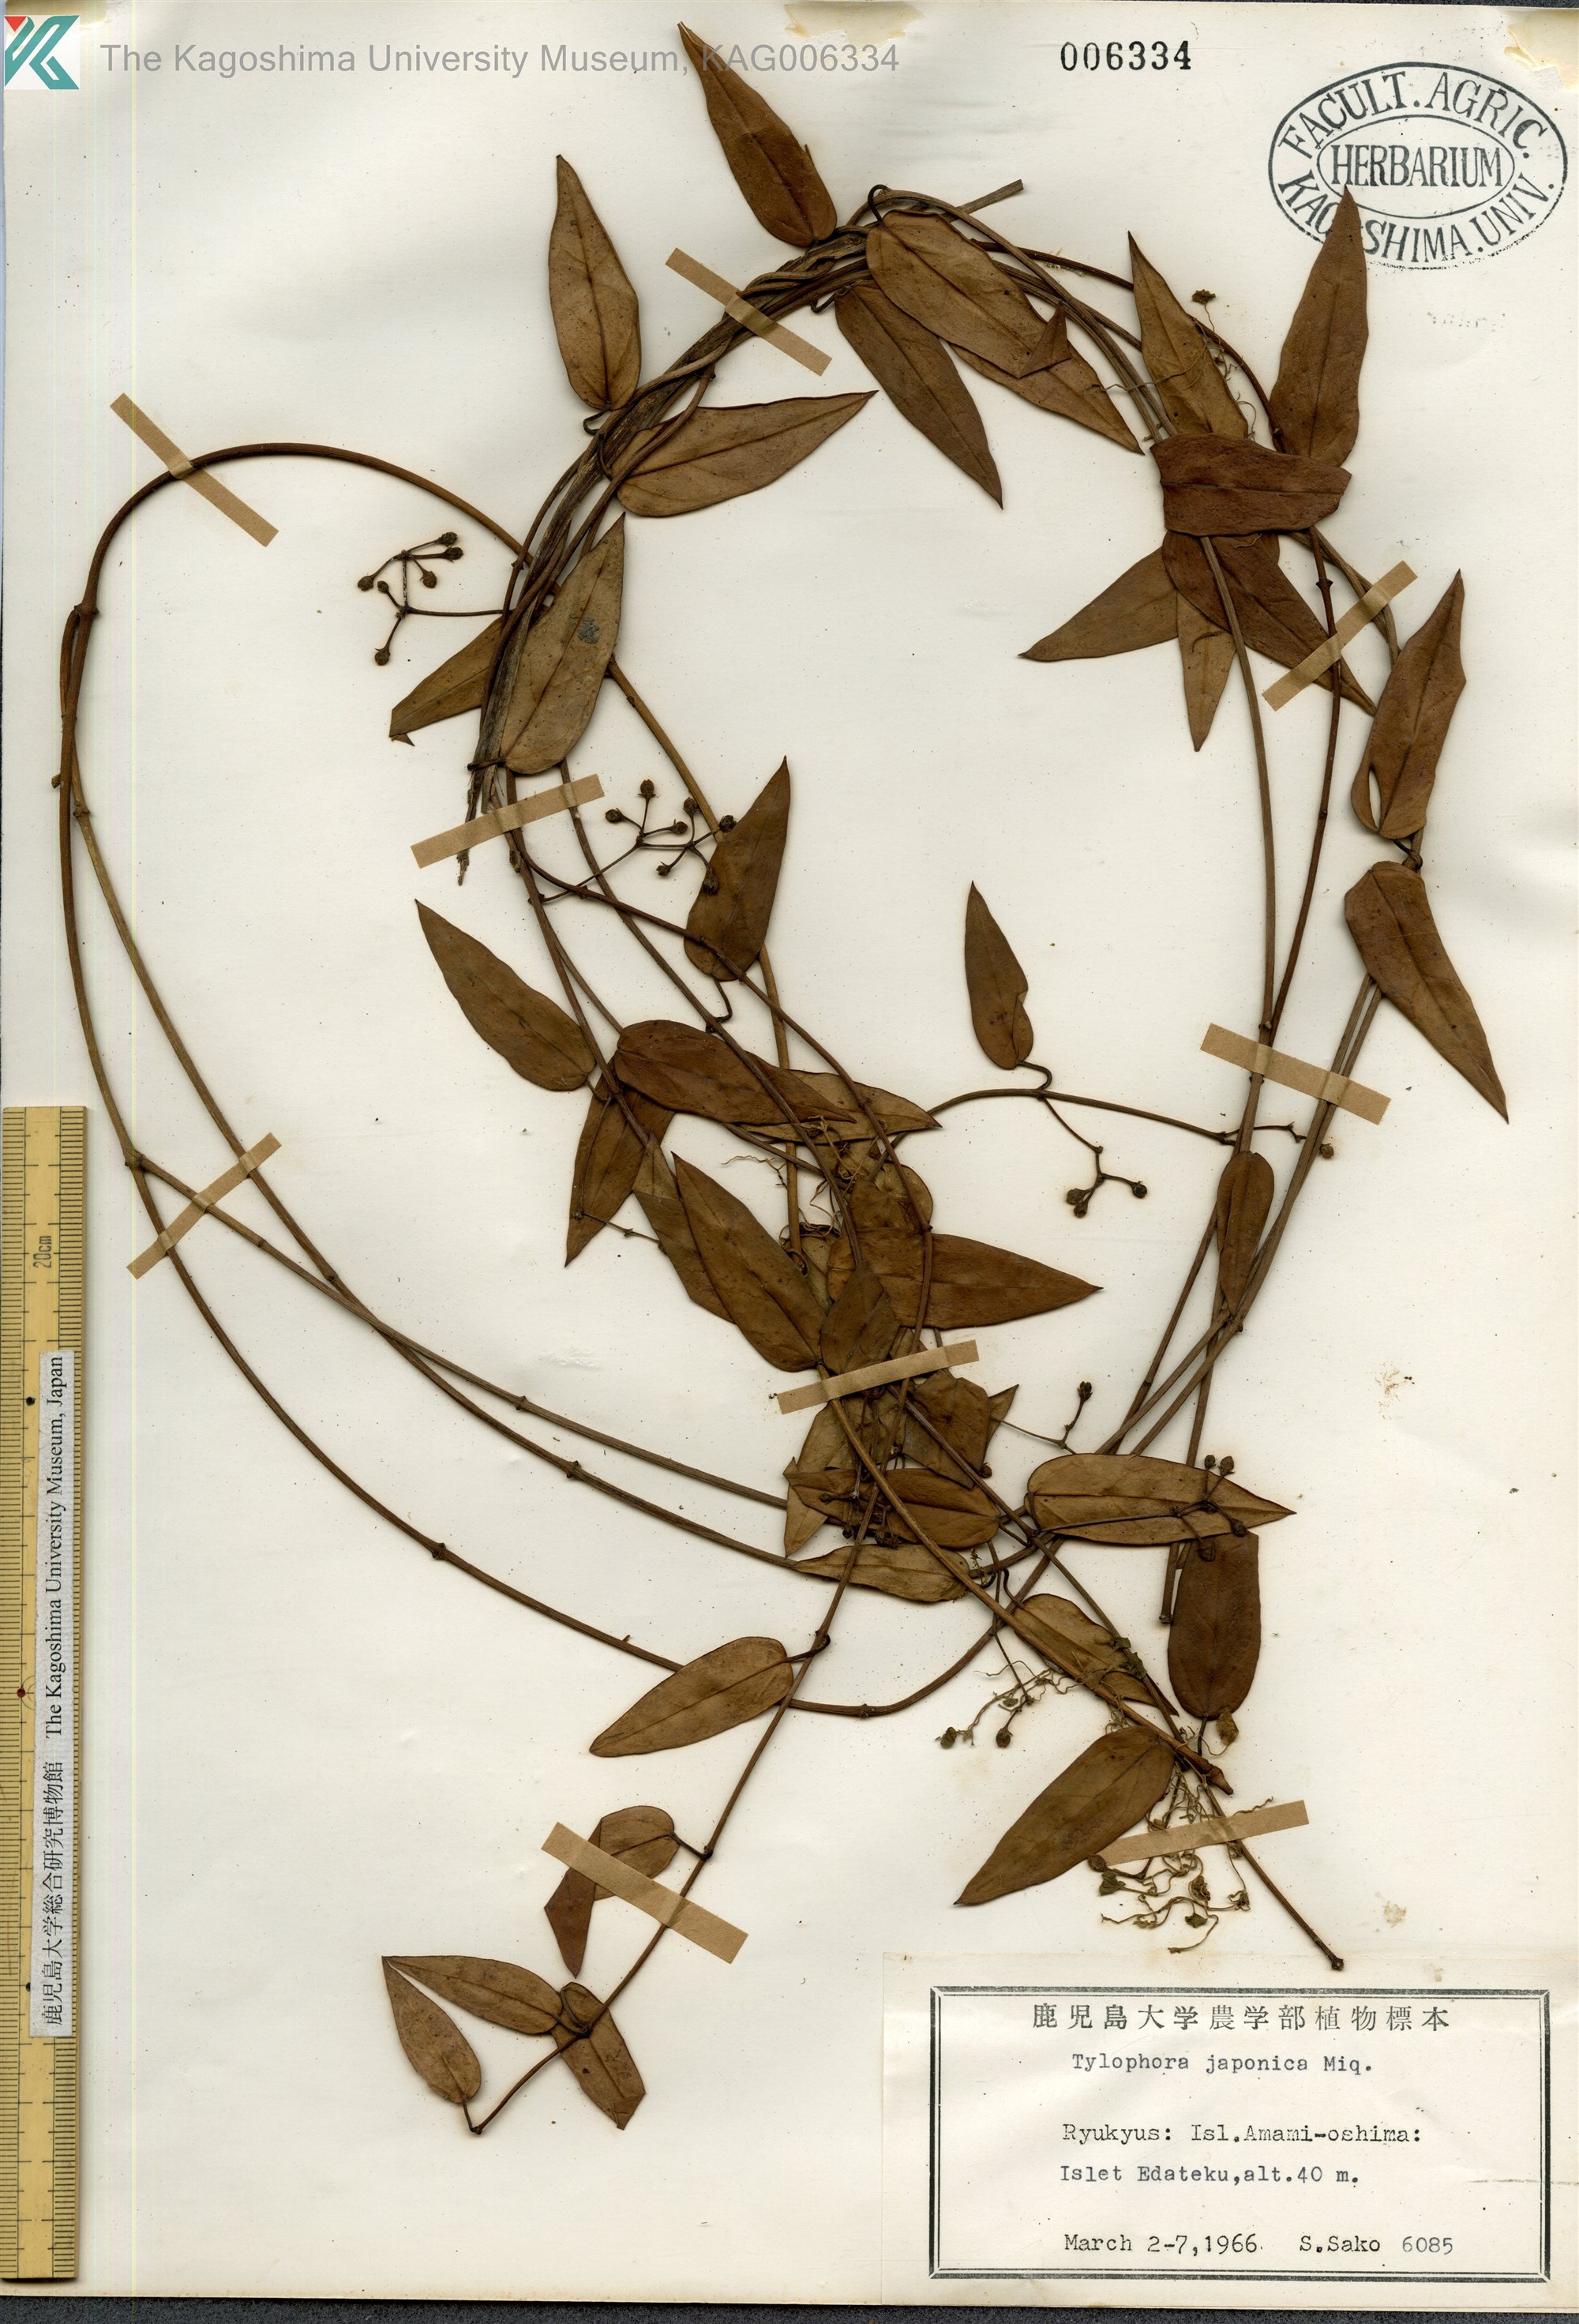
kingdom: Plantae
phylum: Tracheophyta
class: Magnoliopsida
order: Gentianales
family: Apocynaceae
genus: Vincetoxicum
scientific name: Vincetoxicum sieboldii
